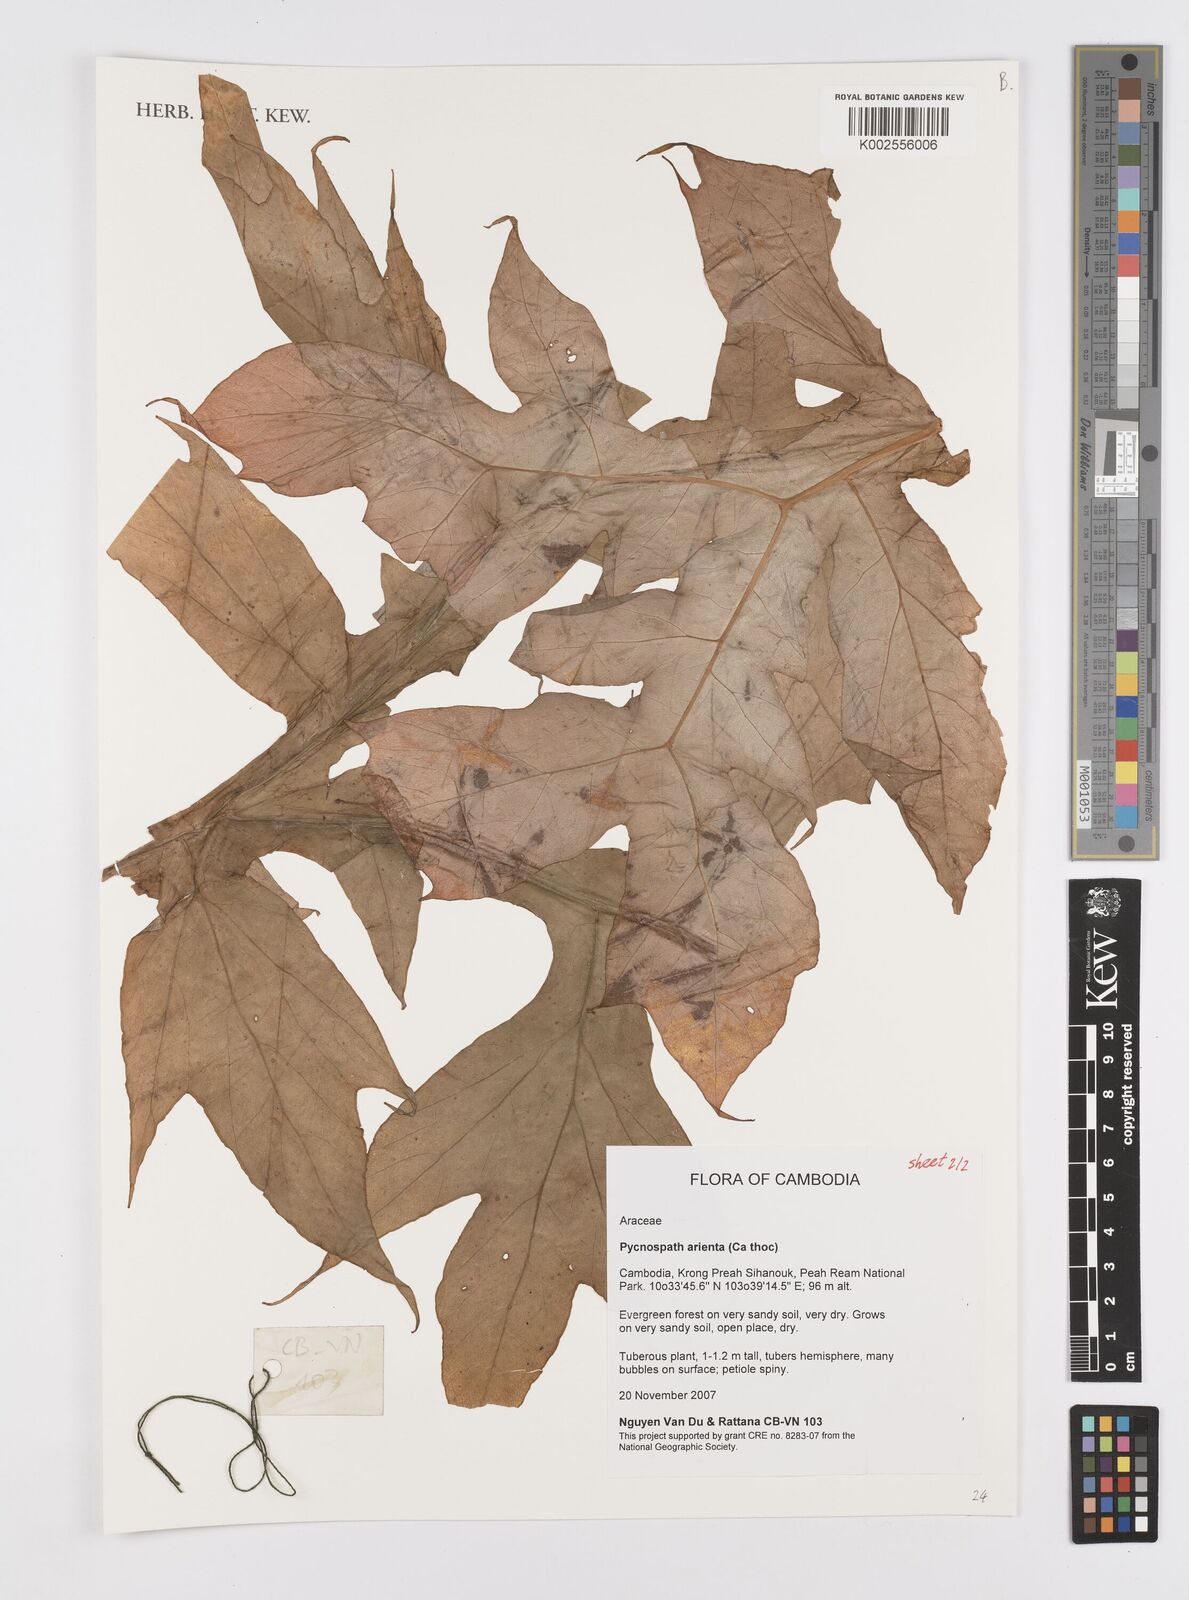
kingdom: Plantae
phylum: Tracheophyta
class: Liliopsida
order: Alismatales
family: Araceae
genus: Pycnospatha
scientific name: Pycnospatha arietina
